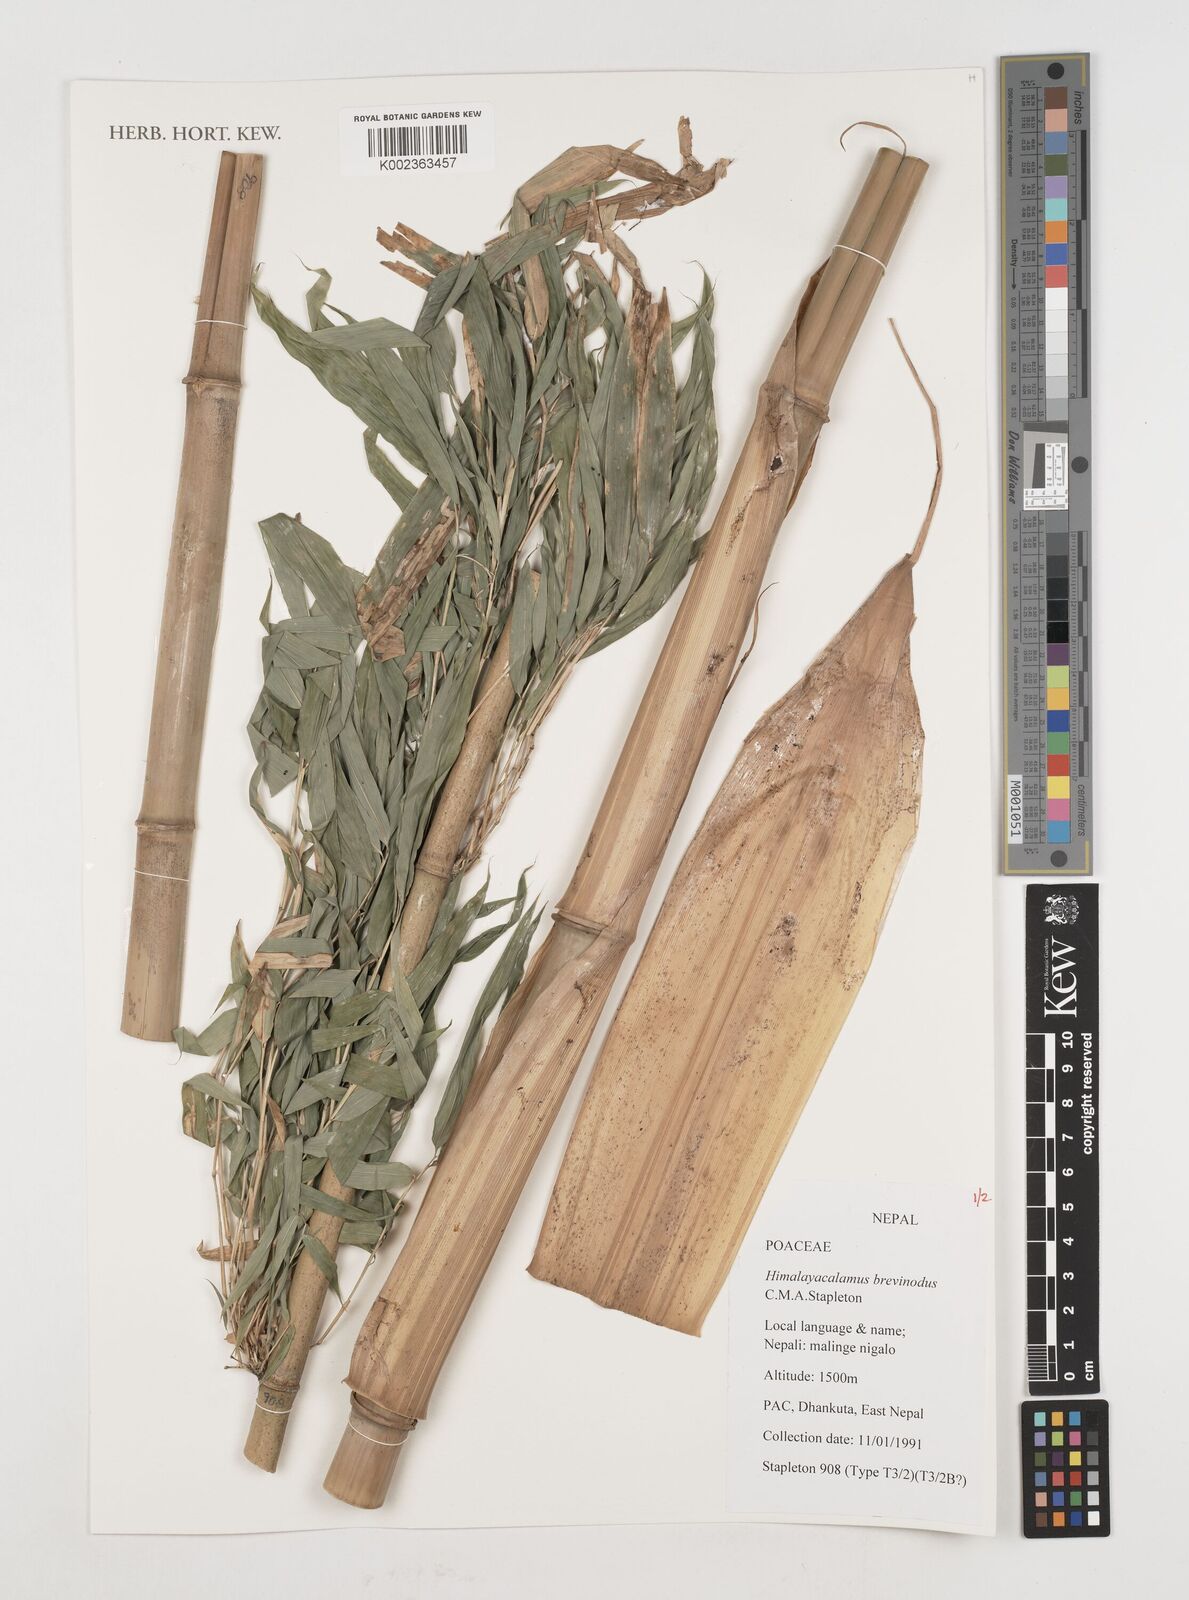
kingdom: Plantae
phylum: Tracheophyta
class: Liliopsida
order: Poales
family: Poaceae
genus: Himalayacalamus
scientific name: Himalayacalamus brevinodus
